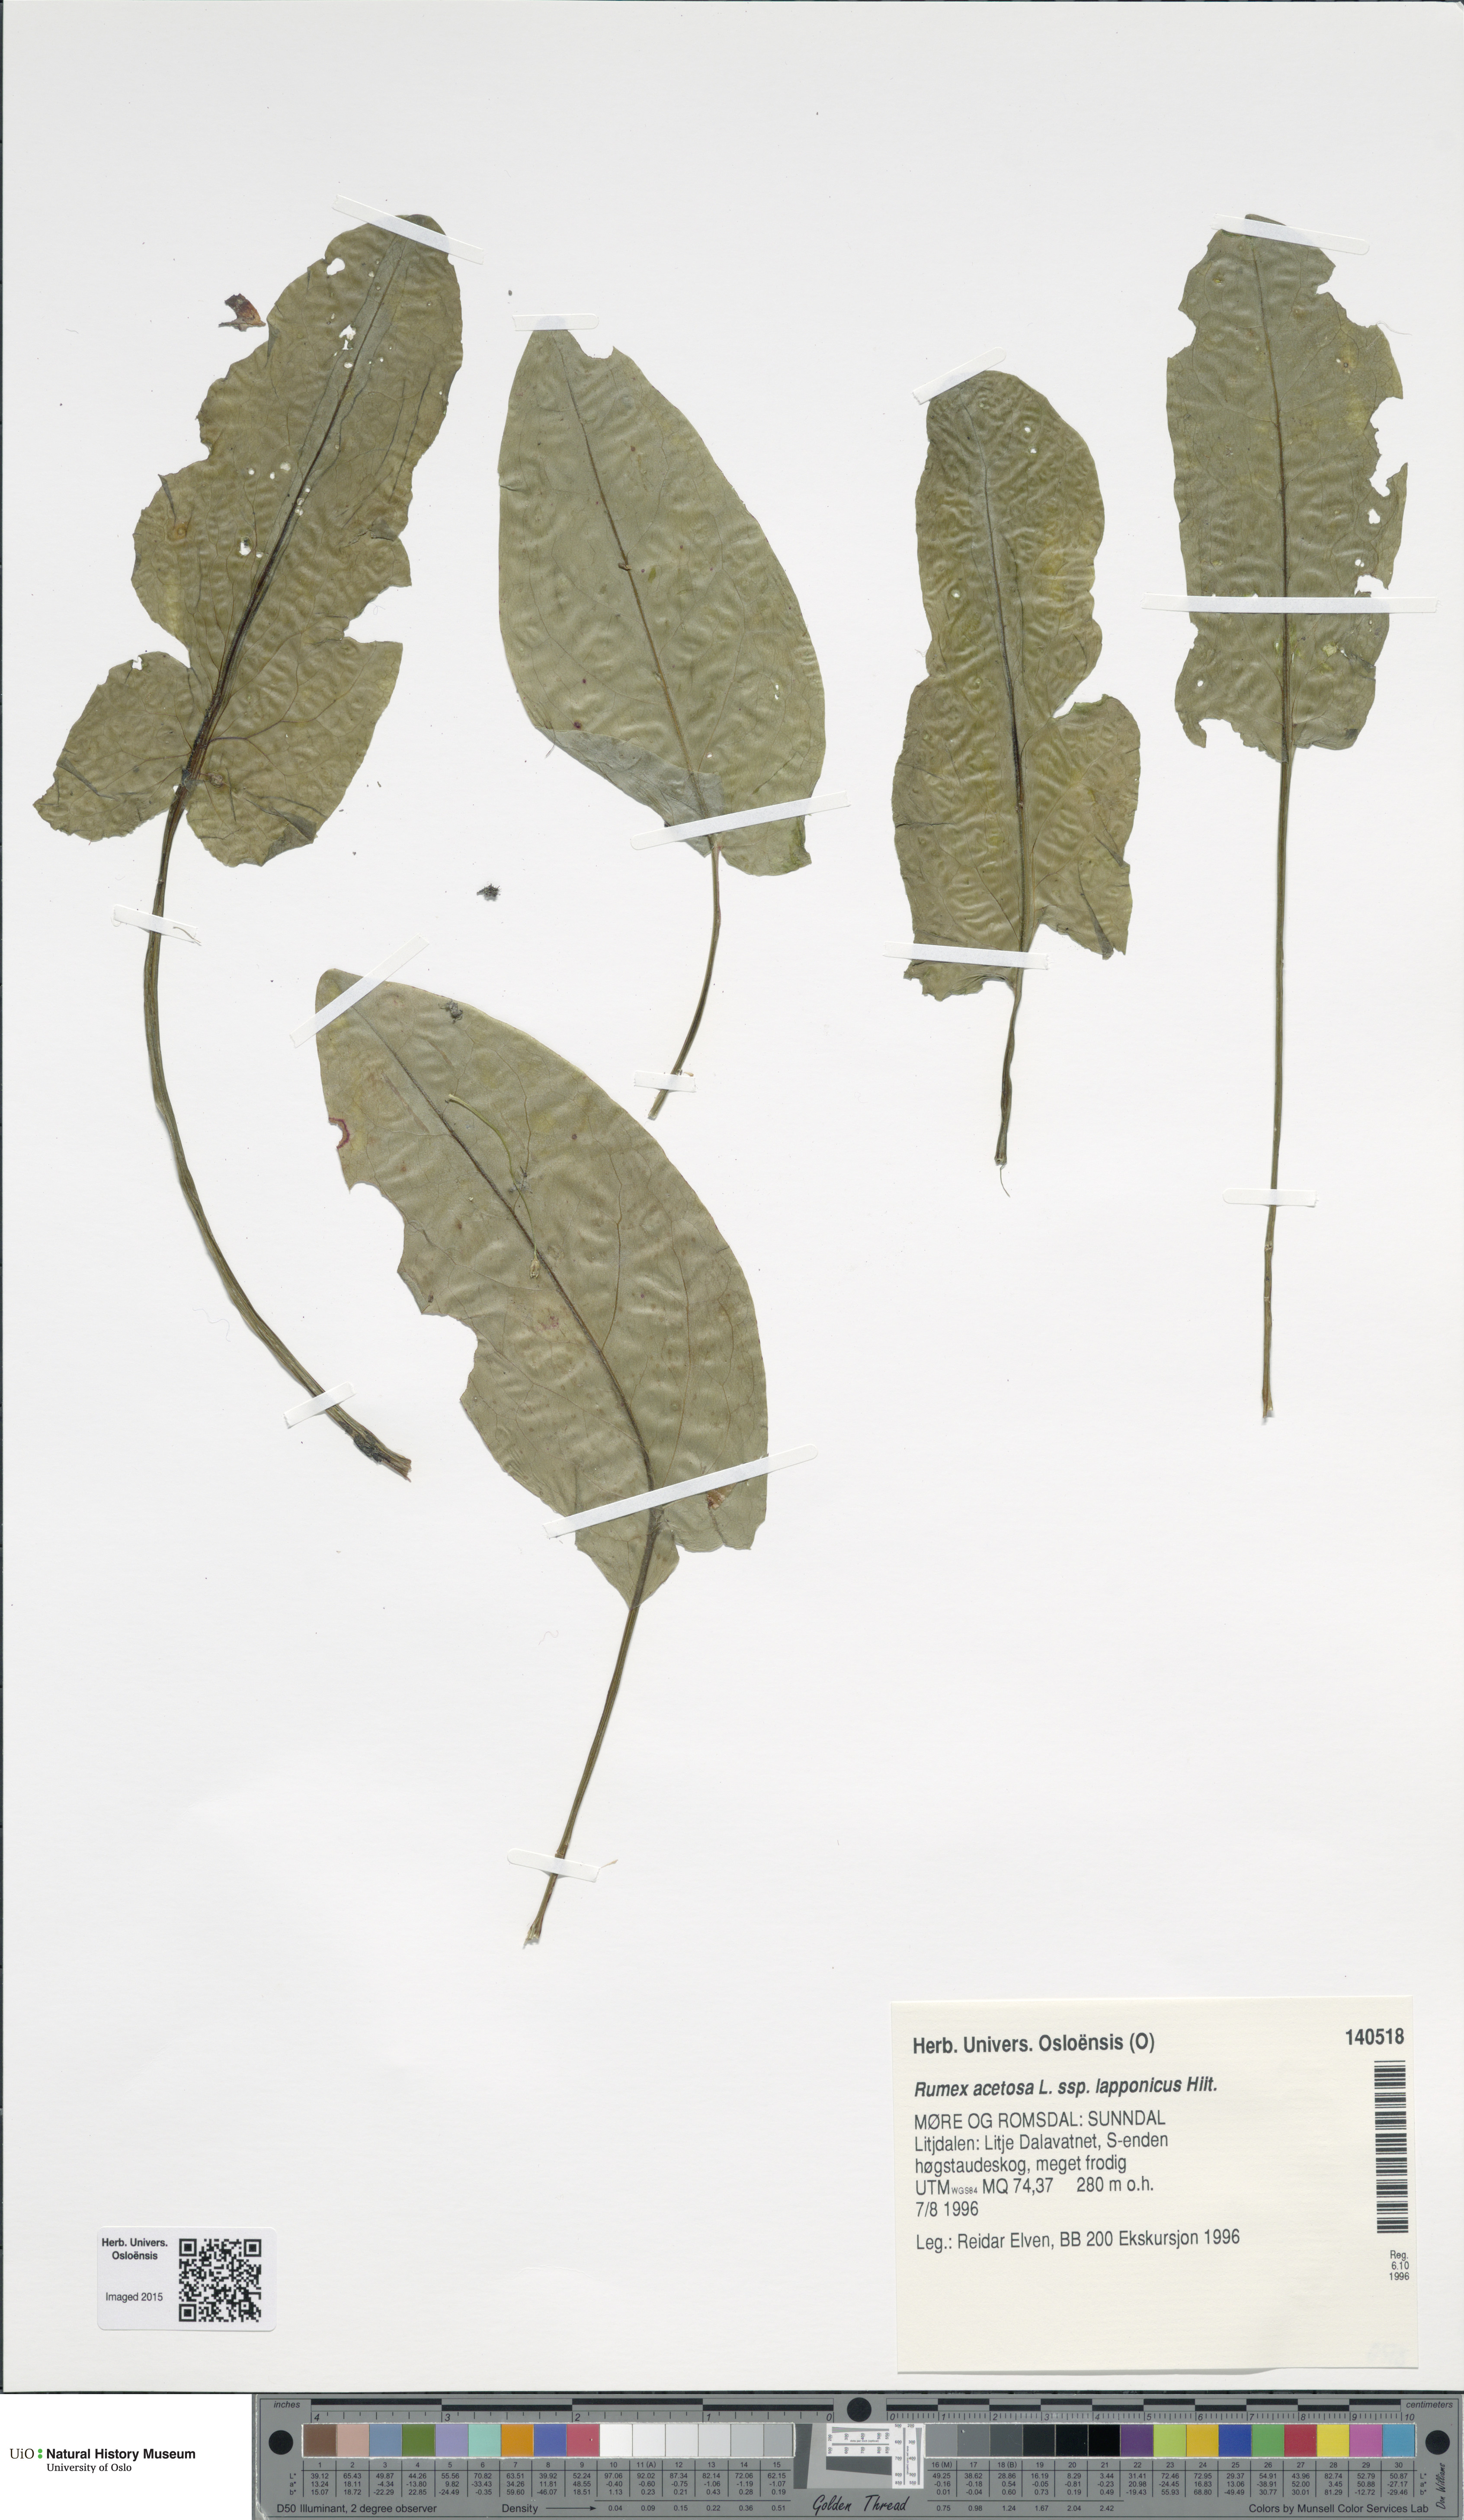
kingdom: Plantae
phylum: Tracheophyta
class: Magnoliopsida
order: Caryophyllales
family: Polygonaceae
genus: Rumex
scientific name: Rumex lapponicus
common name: Lapland mountain sorrel
